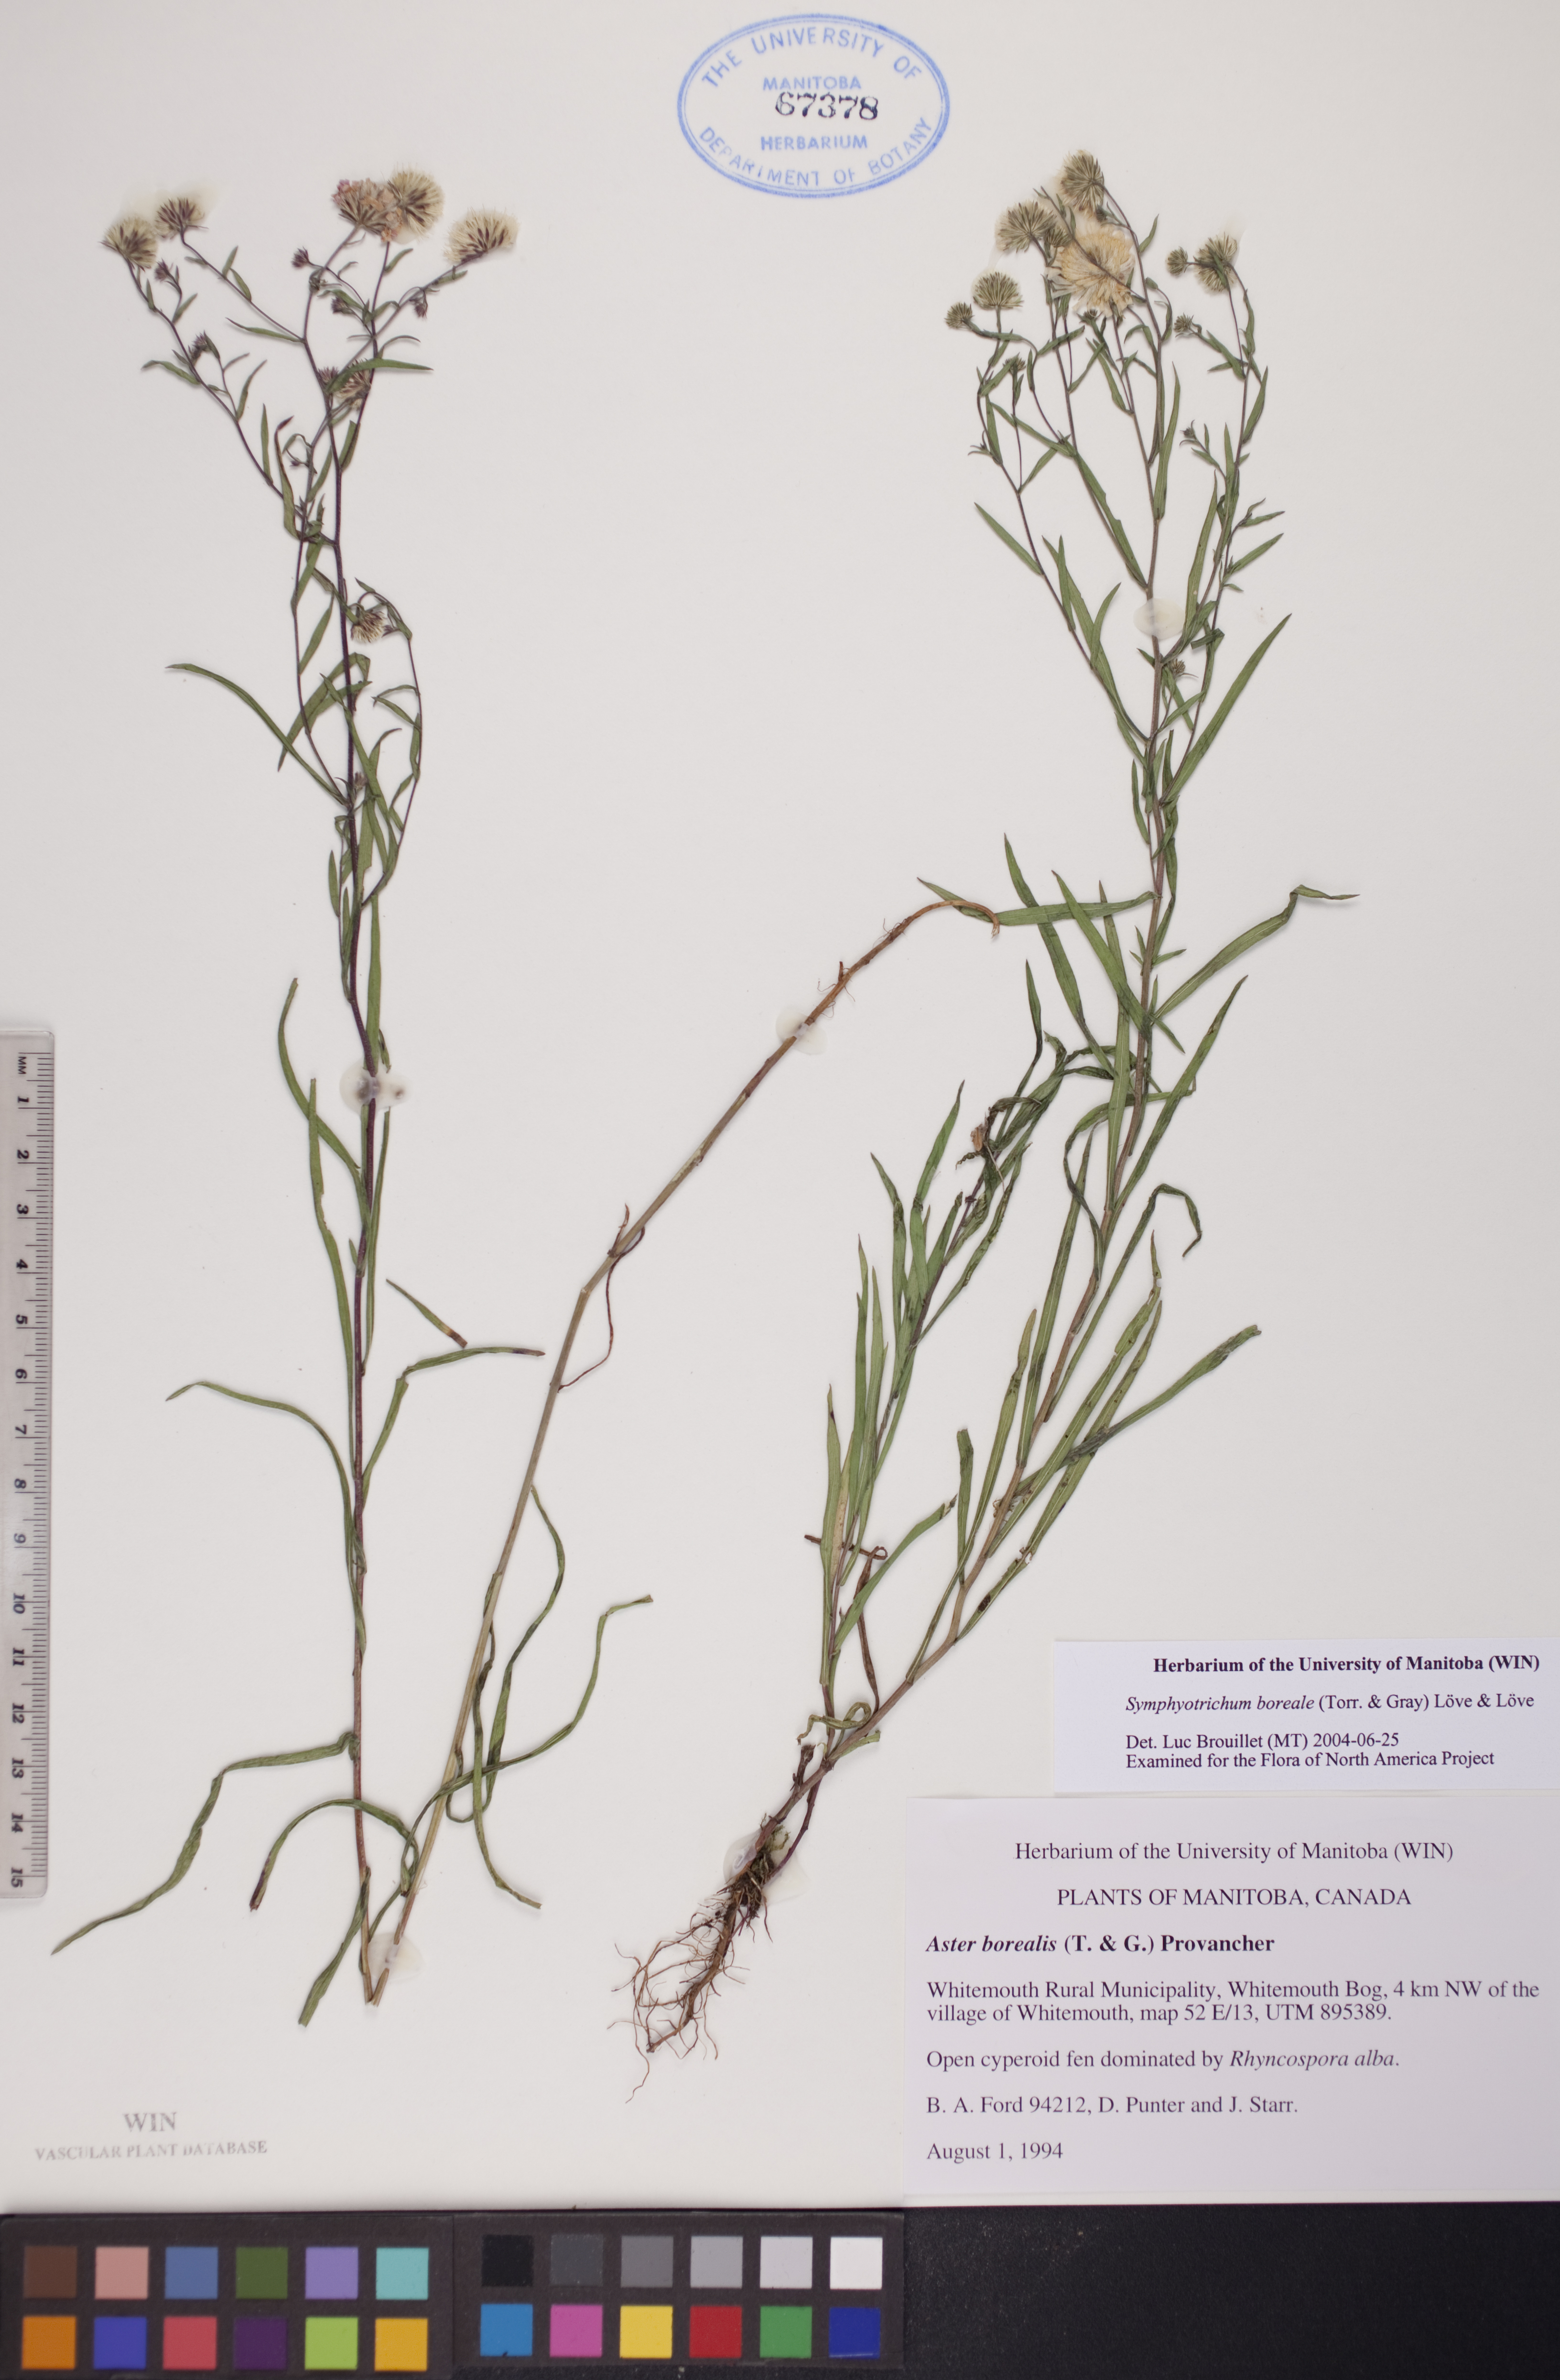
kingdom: Plantae
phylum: Tracheophyta
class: Magnoliopsida
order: Asterales
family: Asteraceae
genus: Symphyotrichum
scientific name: Symphyotrichum boreale
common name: Northern bog aster
